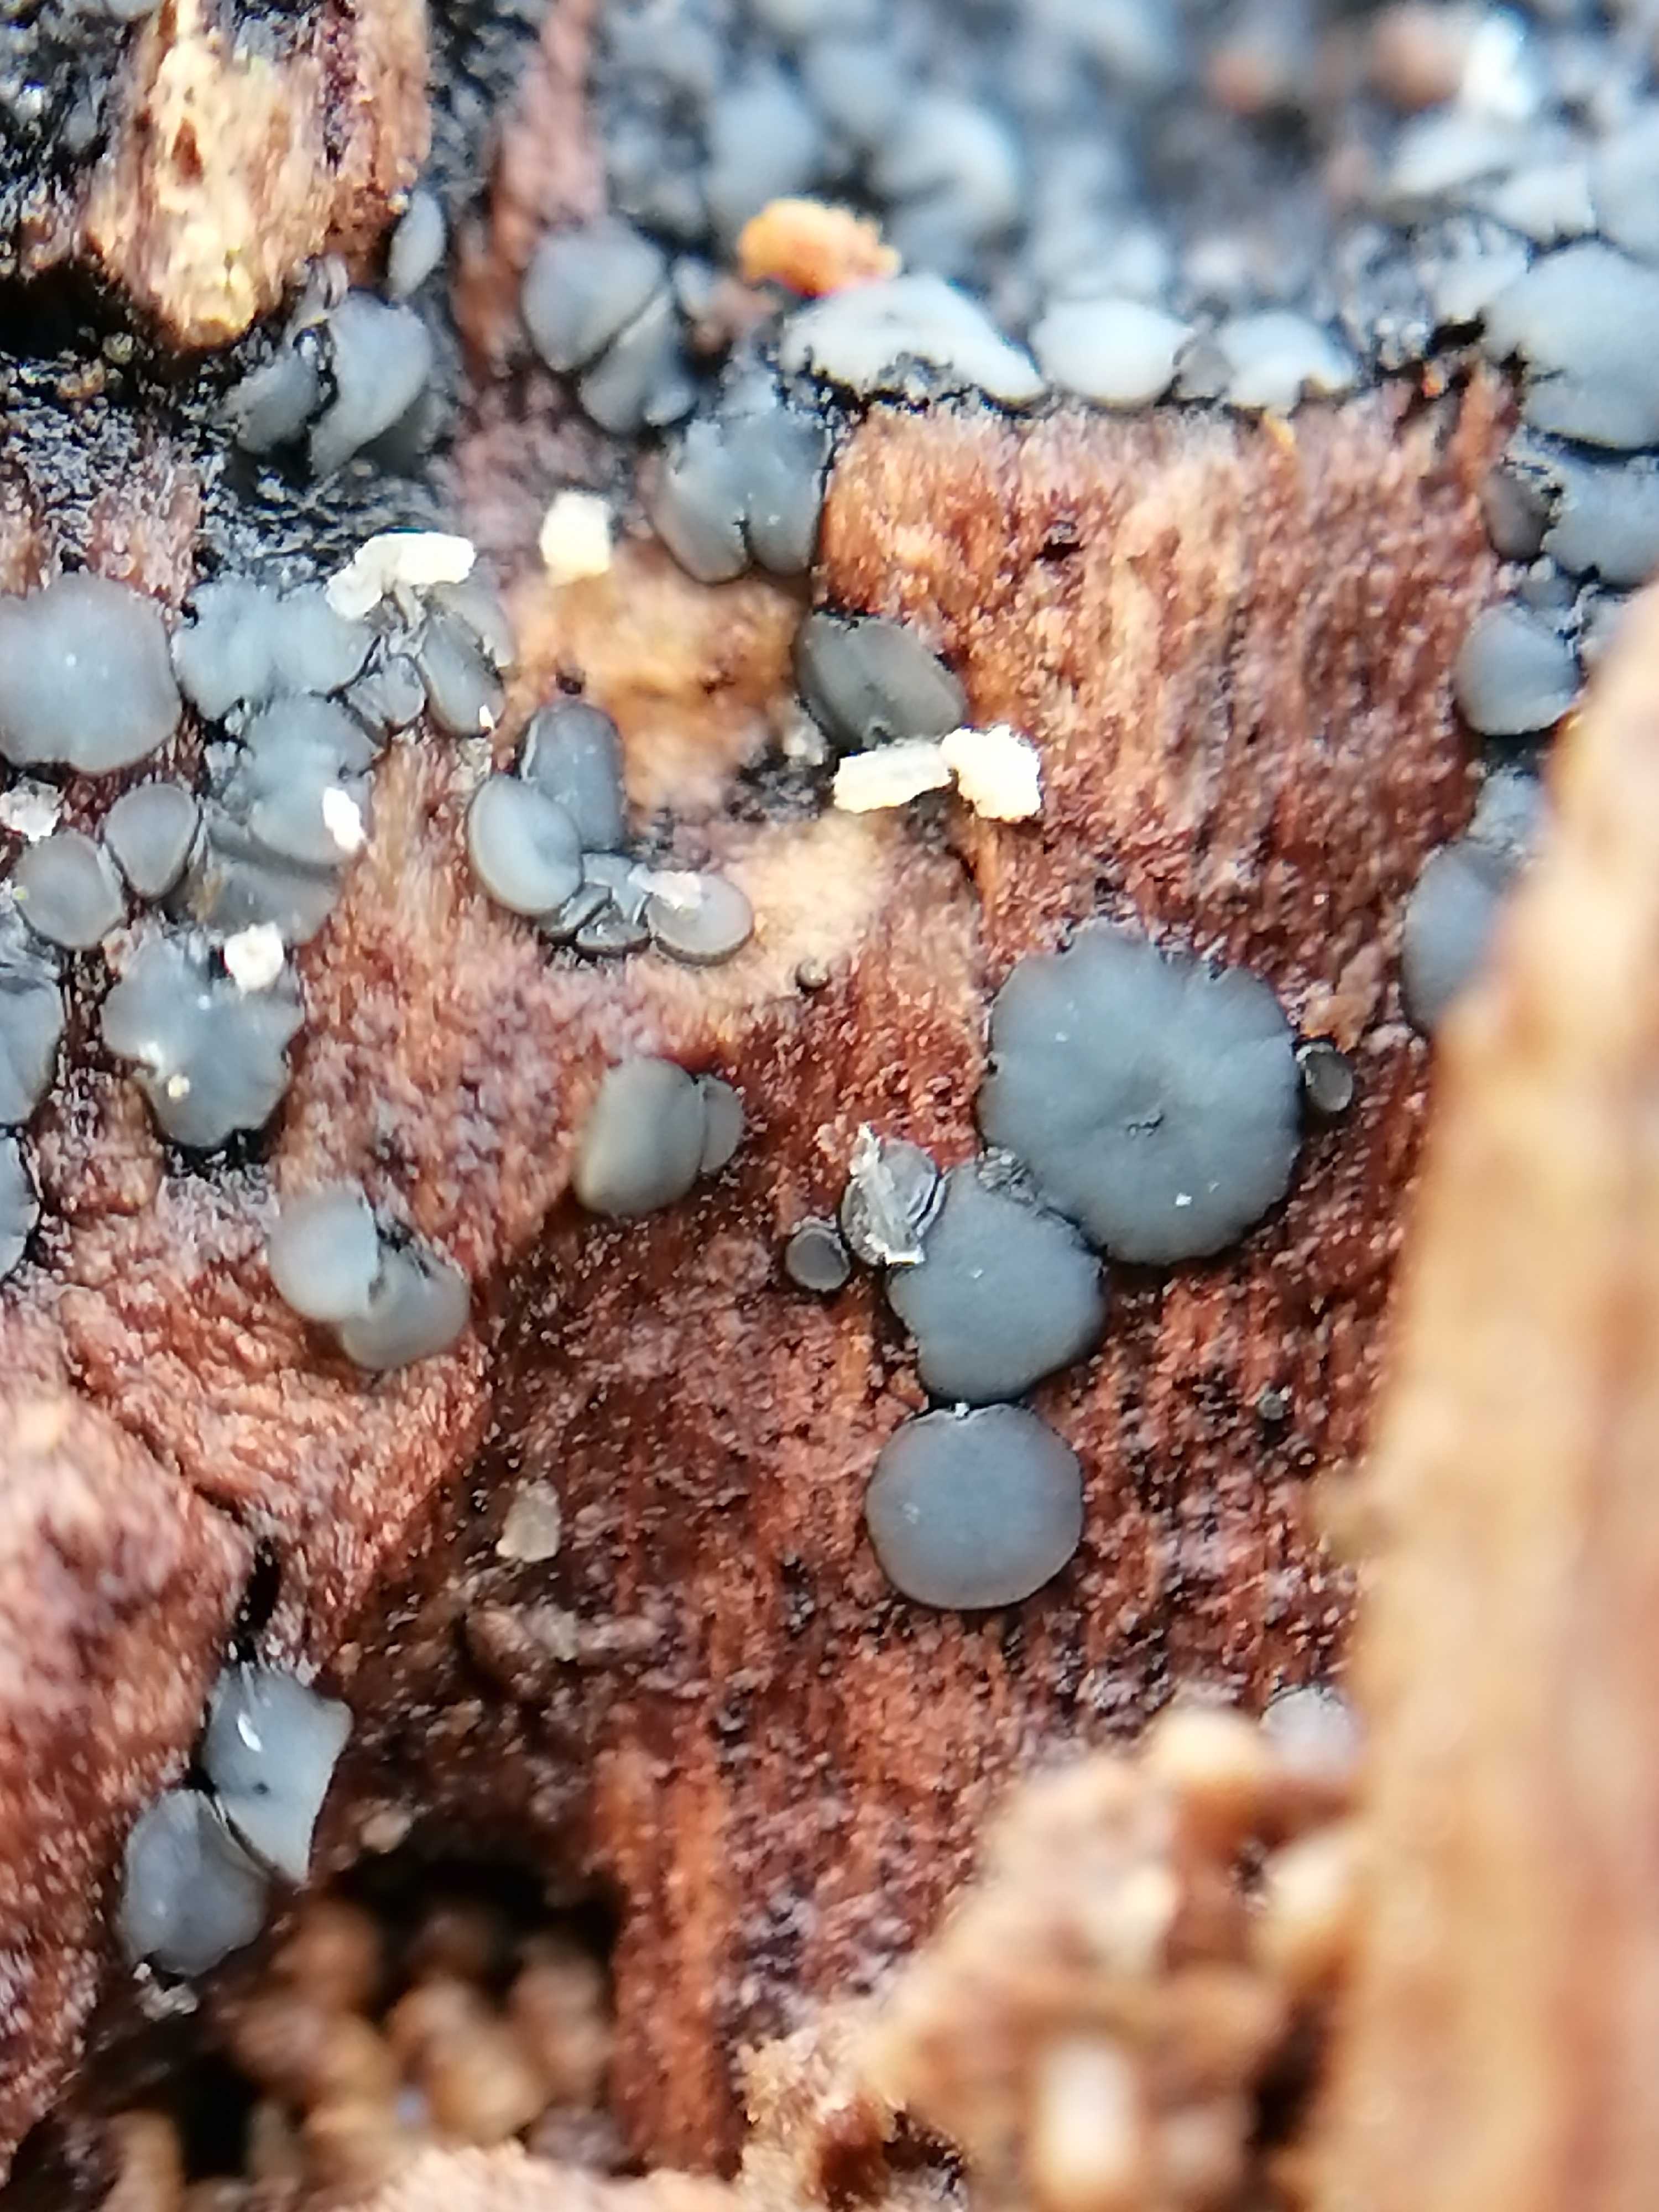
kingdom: Fungi
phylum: Ascomycota
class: Leotiomycetes
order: Helotiales
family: Mollisiaceae
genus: Mollisia
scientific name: Mollisia
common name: gråskive
